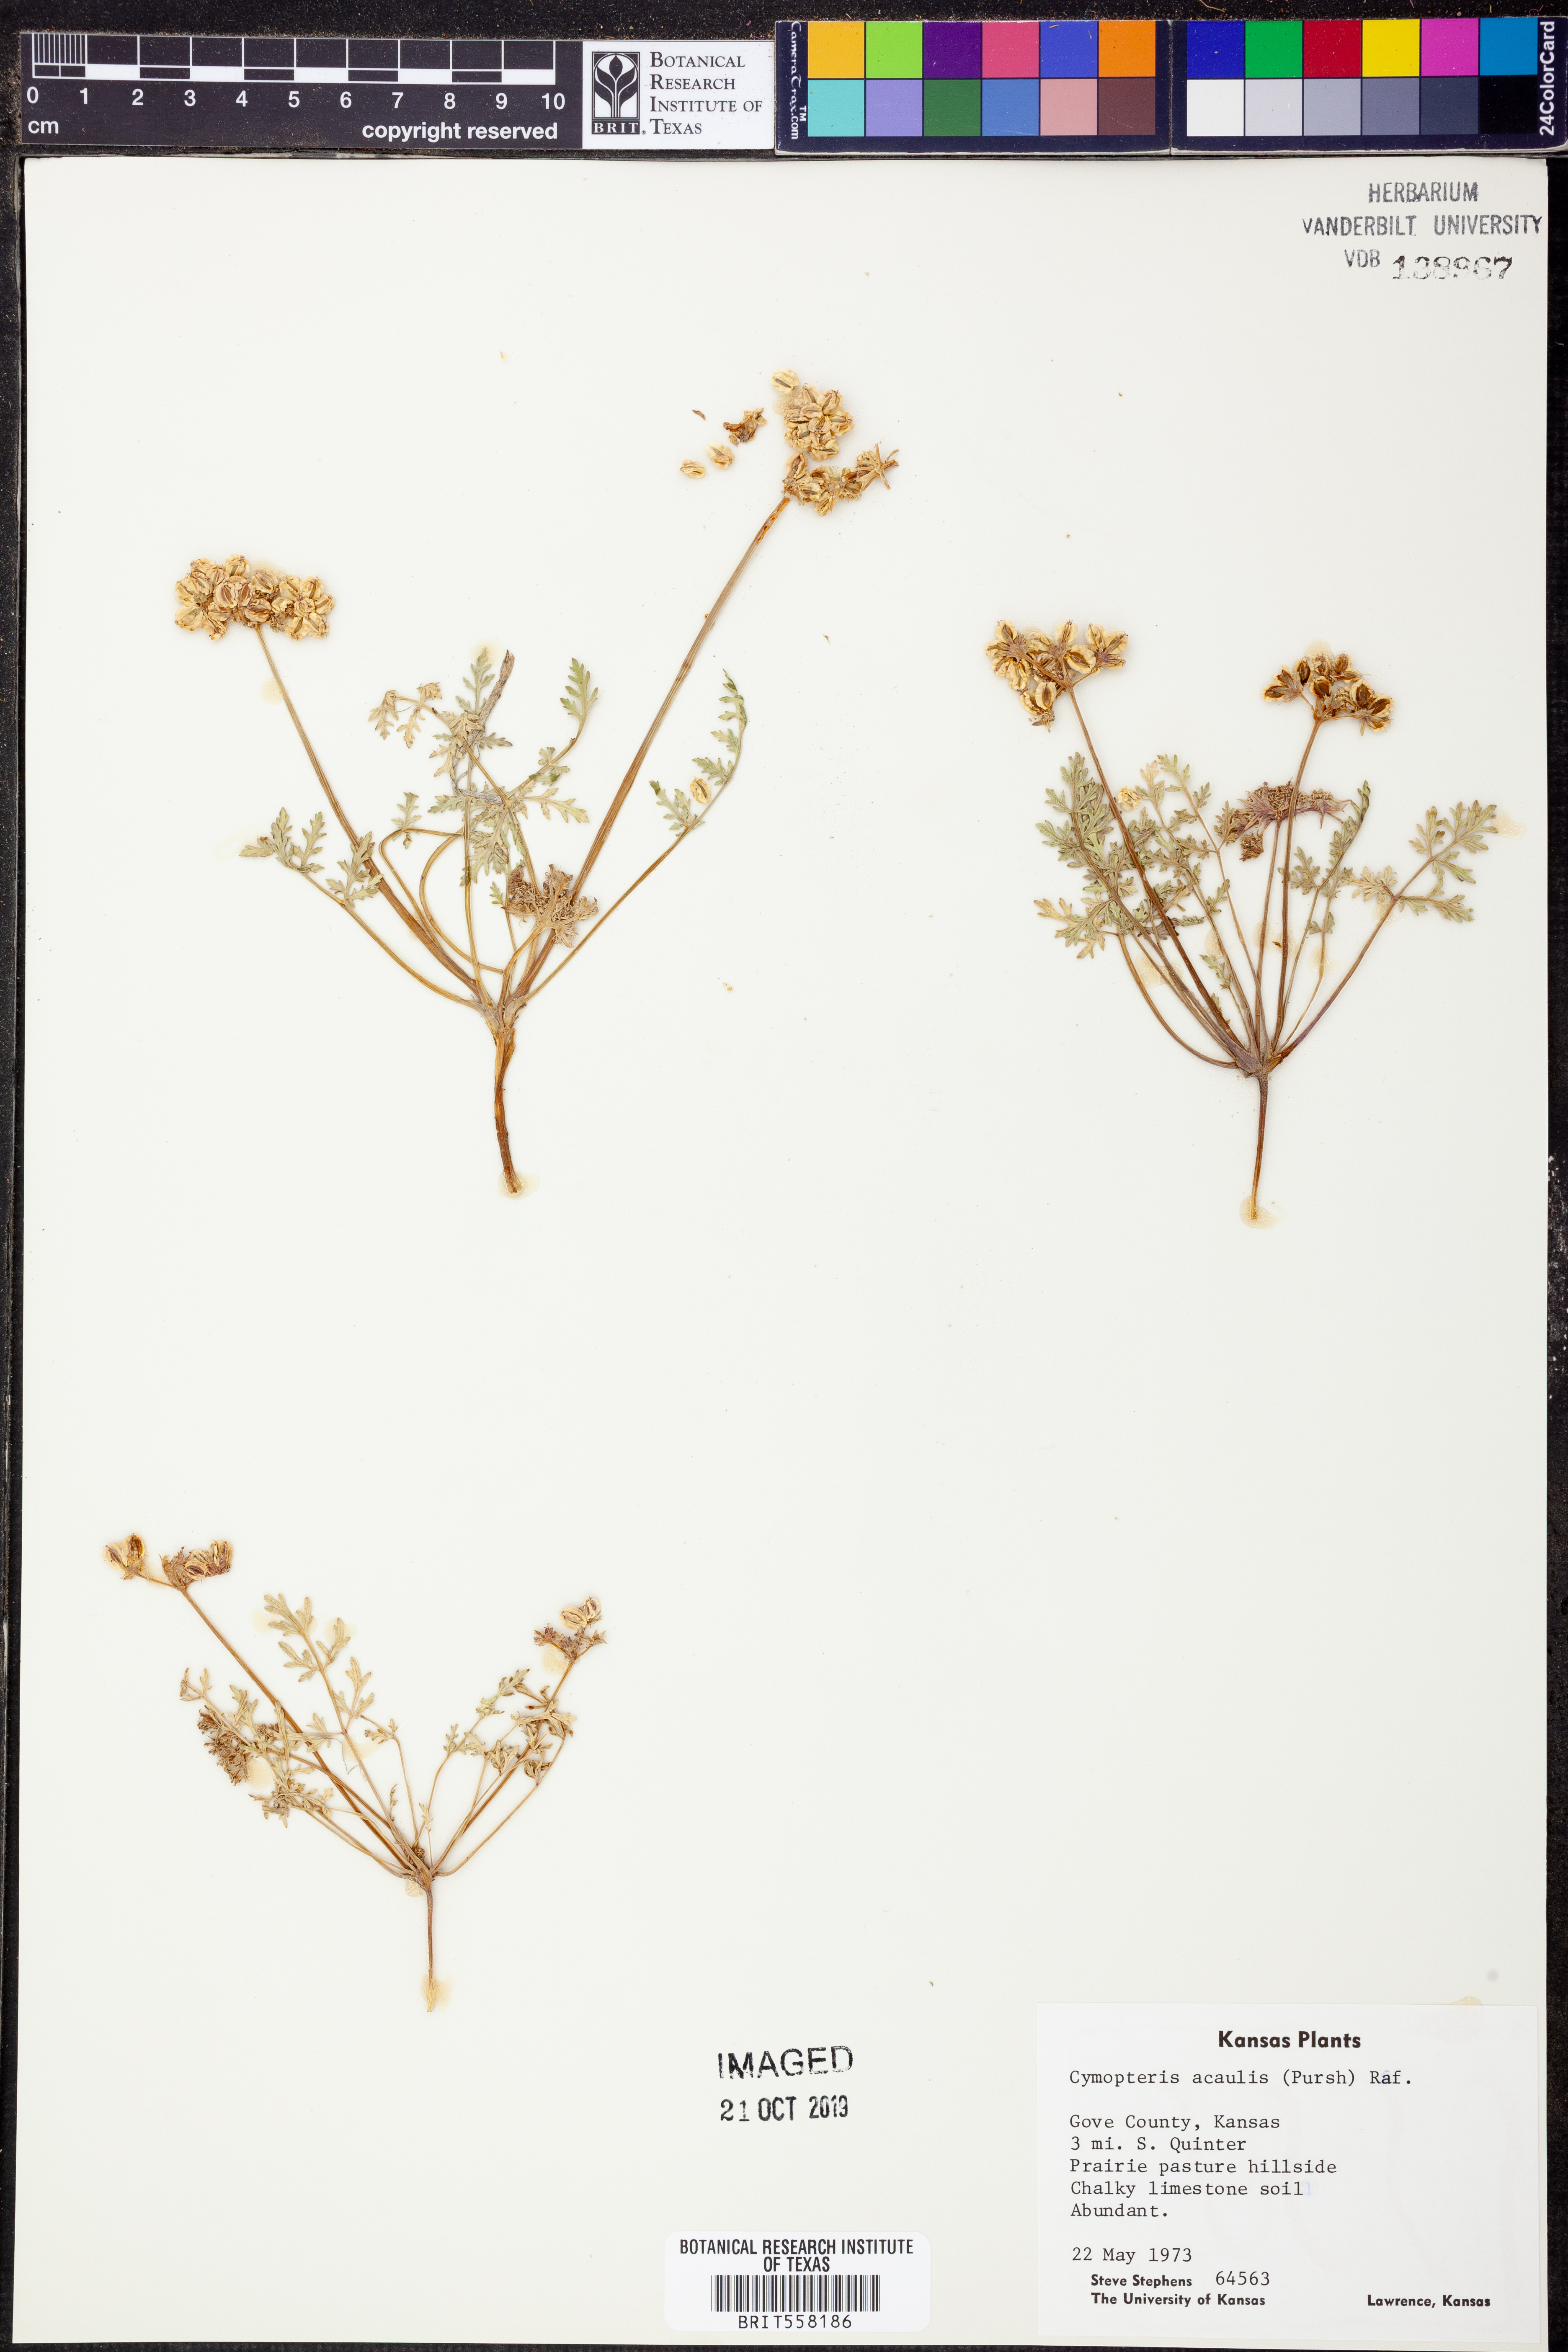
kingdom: Plantae
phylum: Tracheophyta
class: Magnoliopsida
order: Apiales
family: Apiaceae
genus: Cymopterus
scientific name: Cymopterus glomeratus
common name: Plains spring parsley
